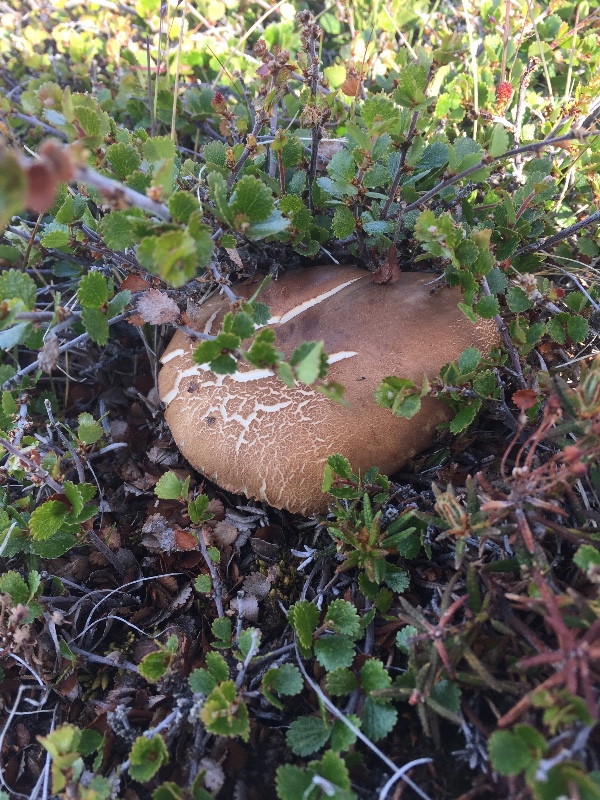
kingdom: Fungi
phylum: Basidiomycota
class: Agaricomycetes
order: Boletales
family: Boletaceae
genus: Leccinum
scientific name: Leccinum
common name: skælrørhat
